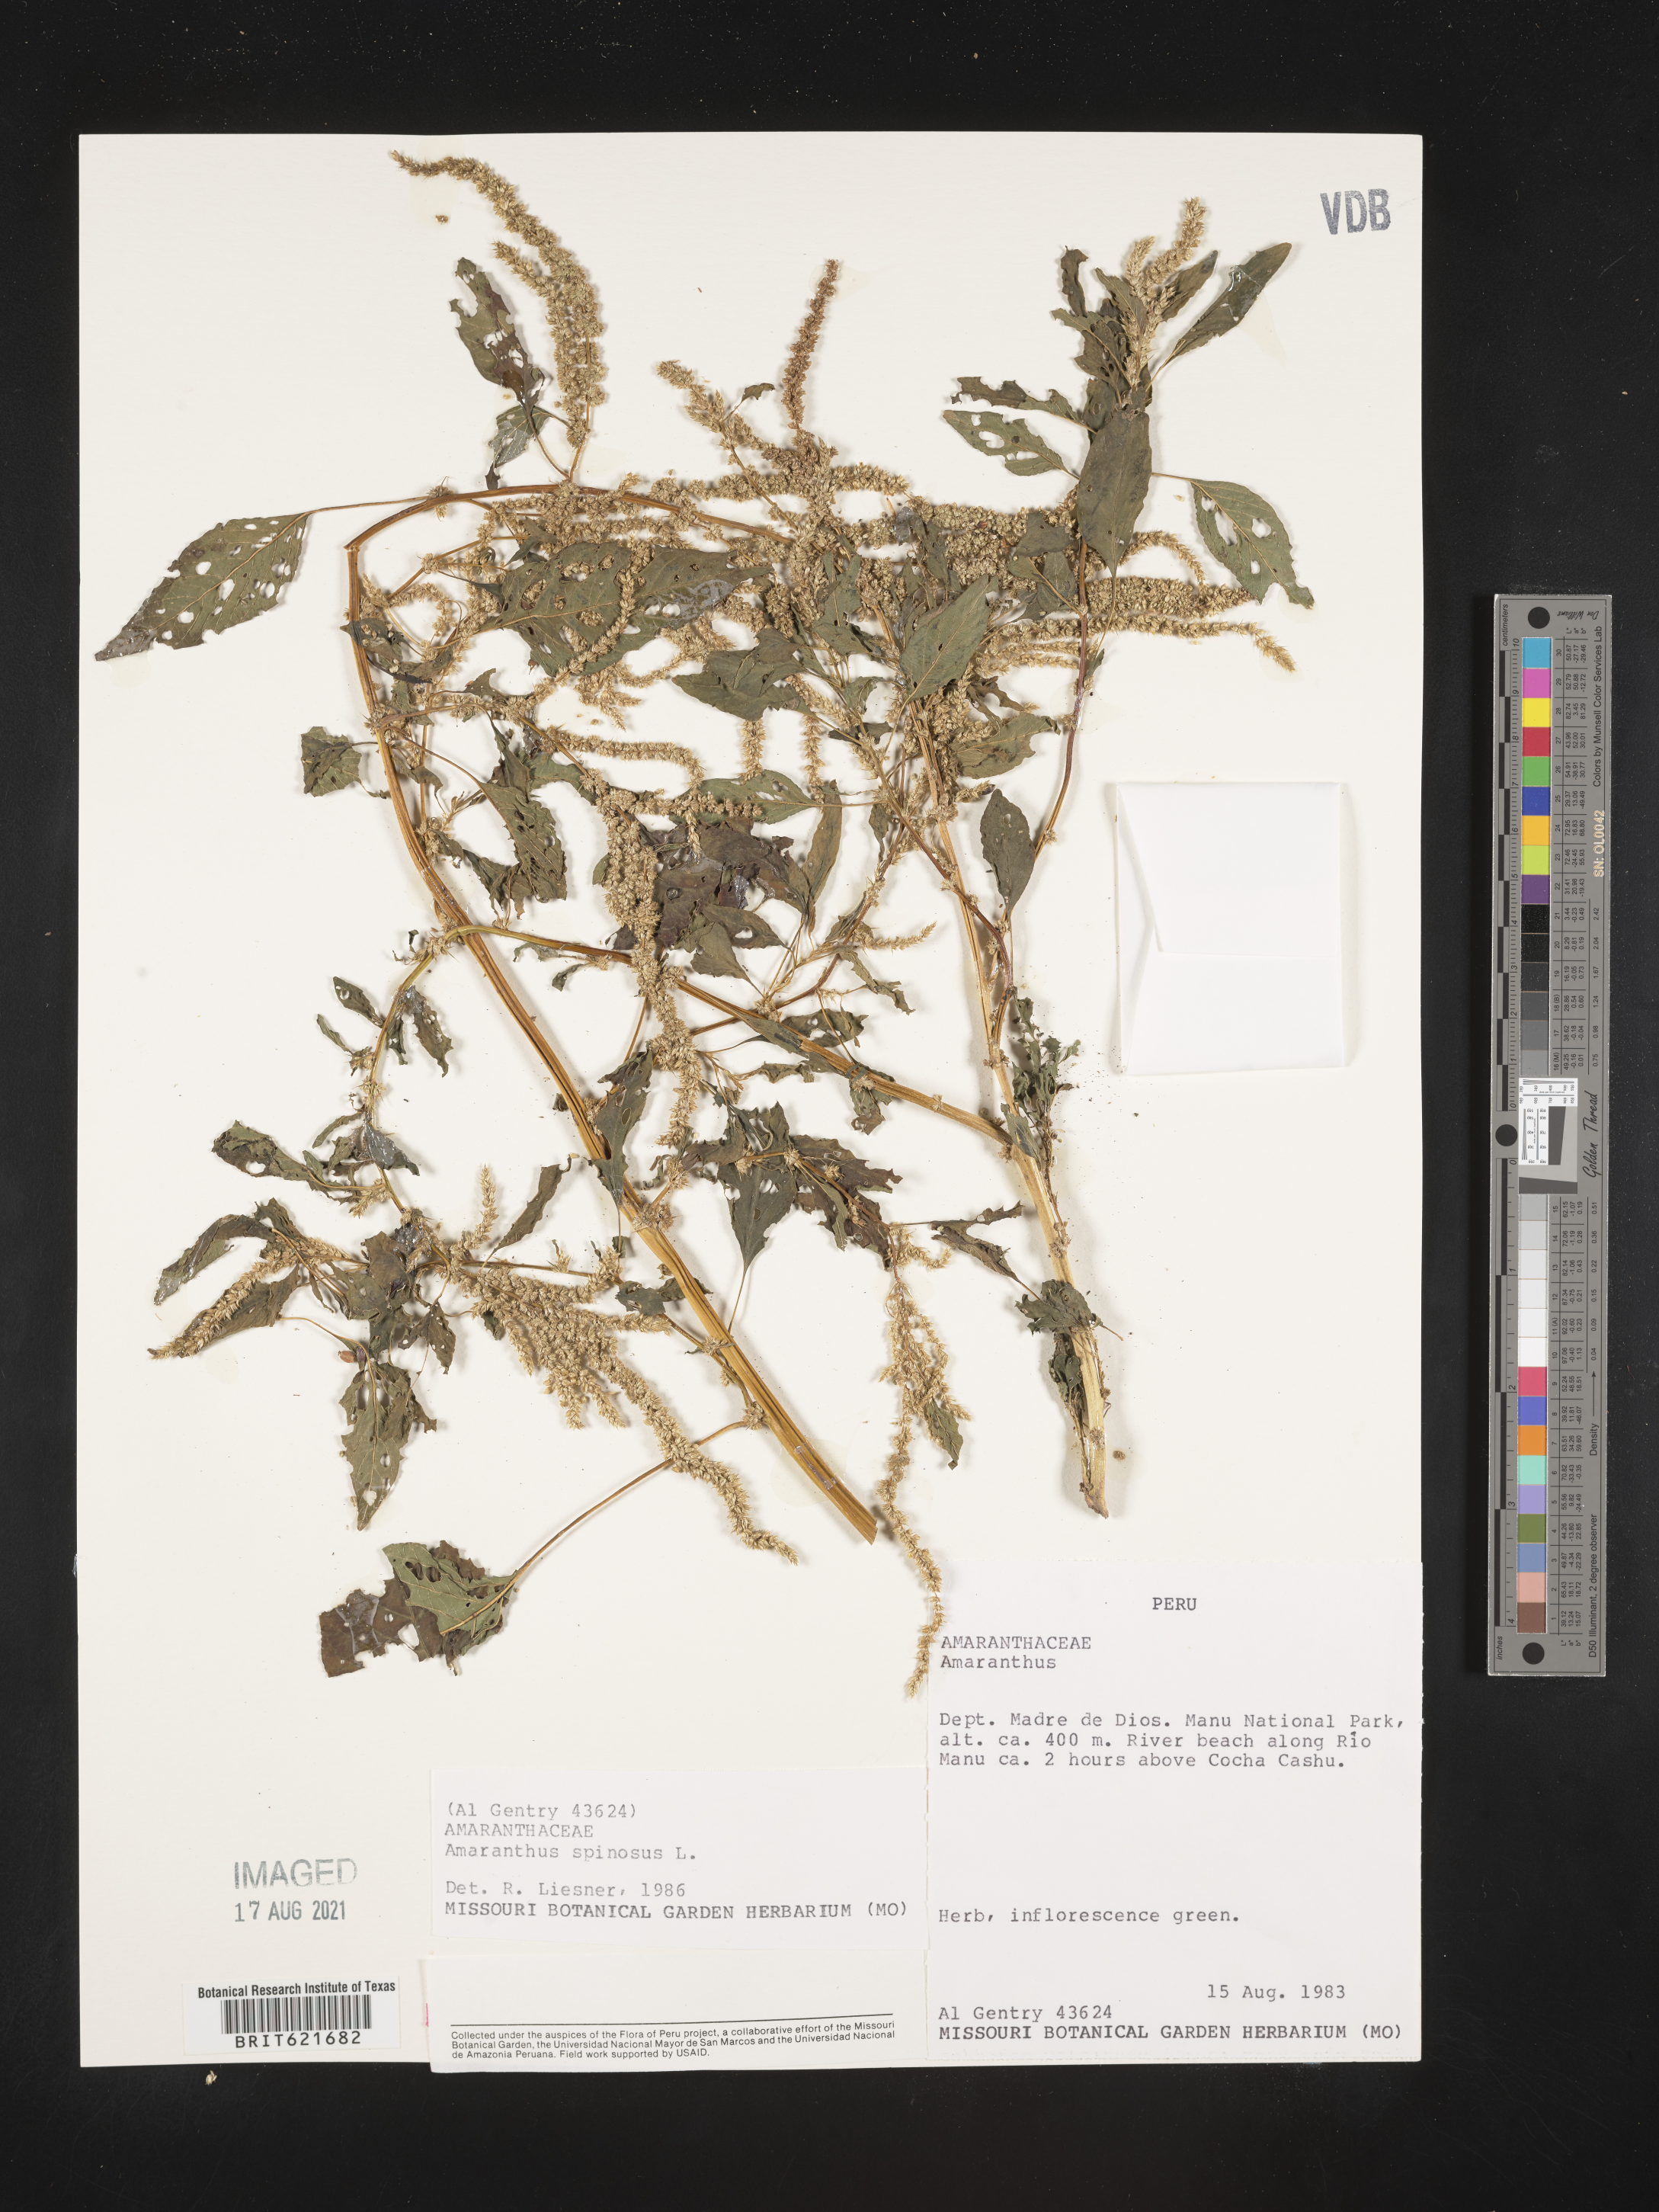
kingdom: Plantae
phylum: Tracheophyta
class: Magnoliopsida
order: Caryophyllales
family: Amaranthaceae
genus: Amaranthus
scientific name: Amaranthus spinosus
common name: Spiny amaranth
